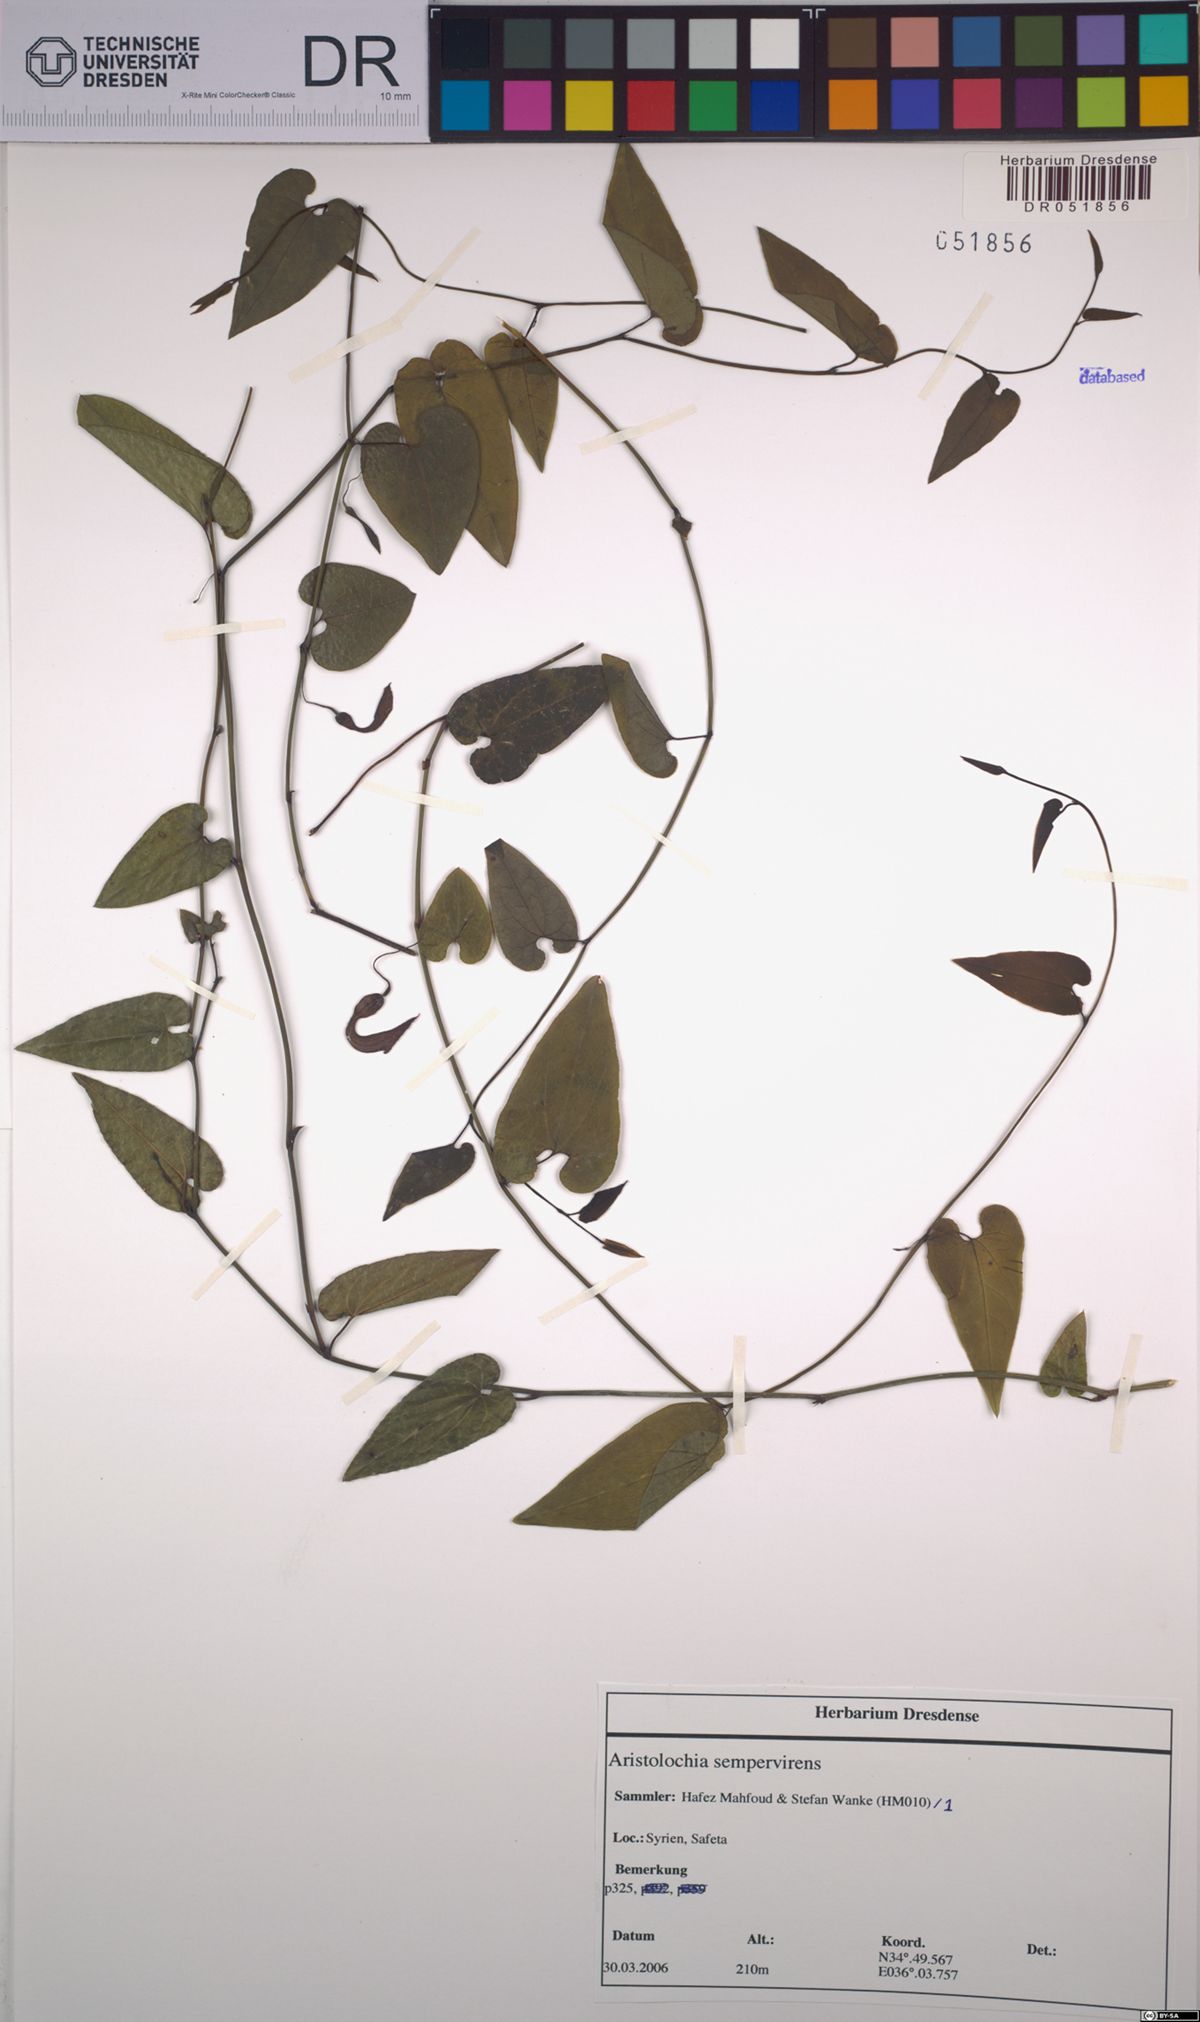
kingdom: Plantae
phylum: Tracheophyta
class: Magnoliopsida
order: Piperales
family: Aristolochiaceae
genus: Aristolochia
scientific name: Aristolochia sempervirens
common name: Long birthwort
